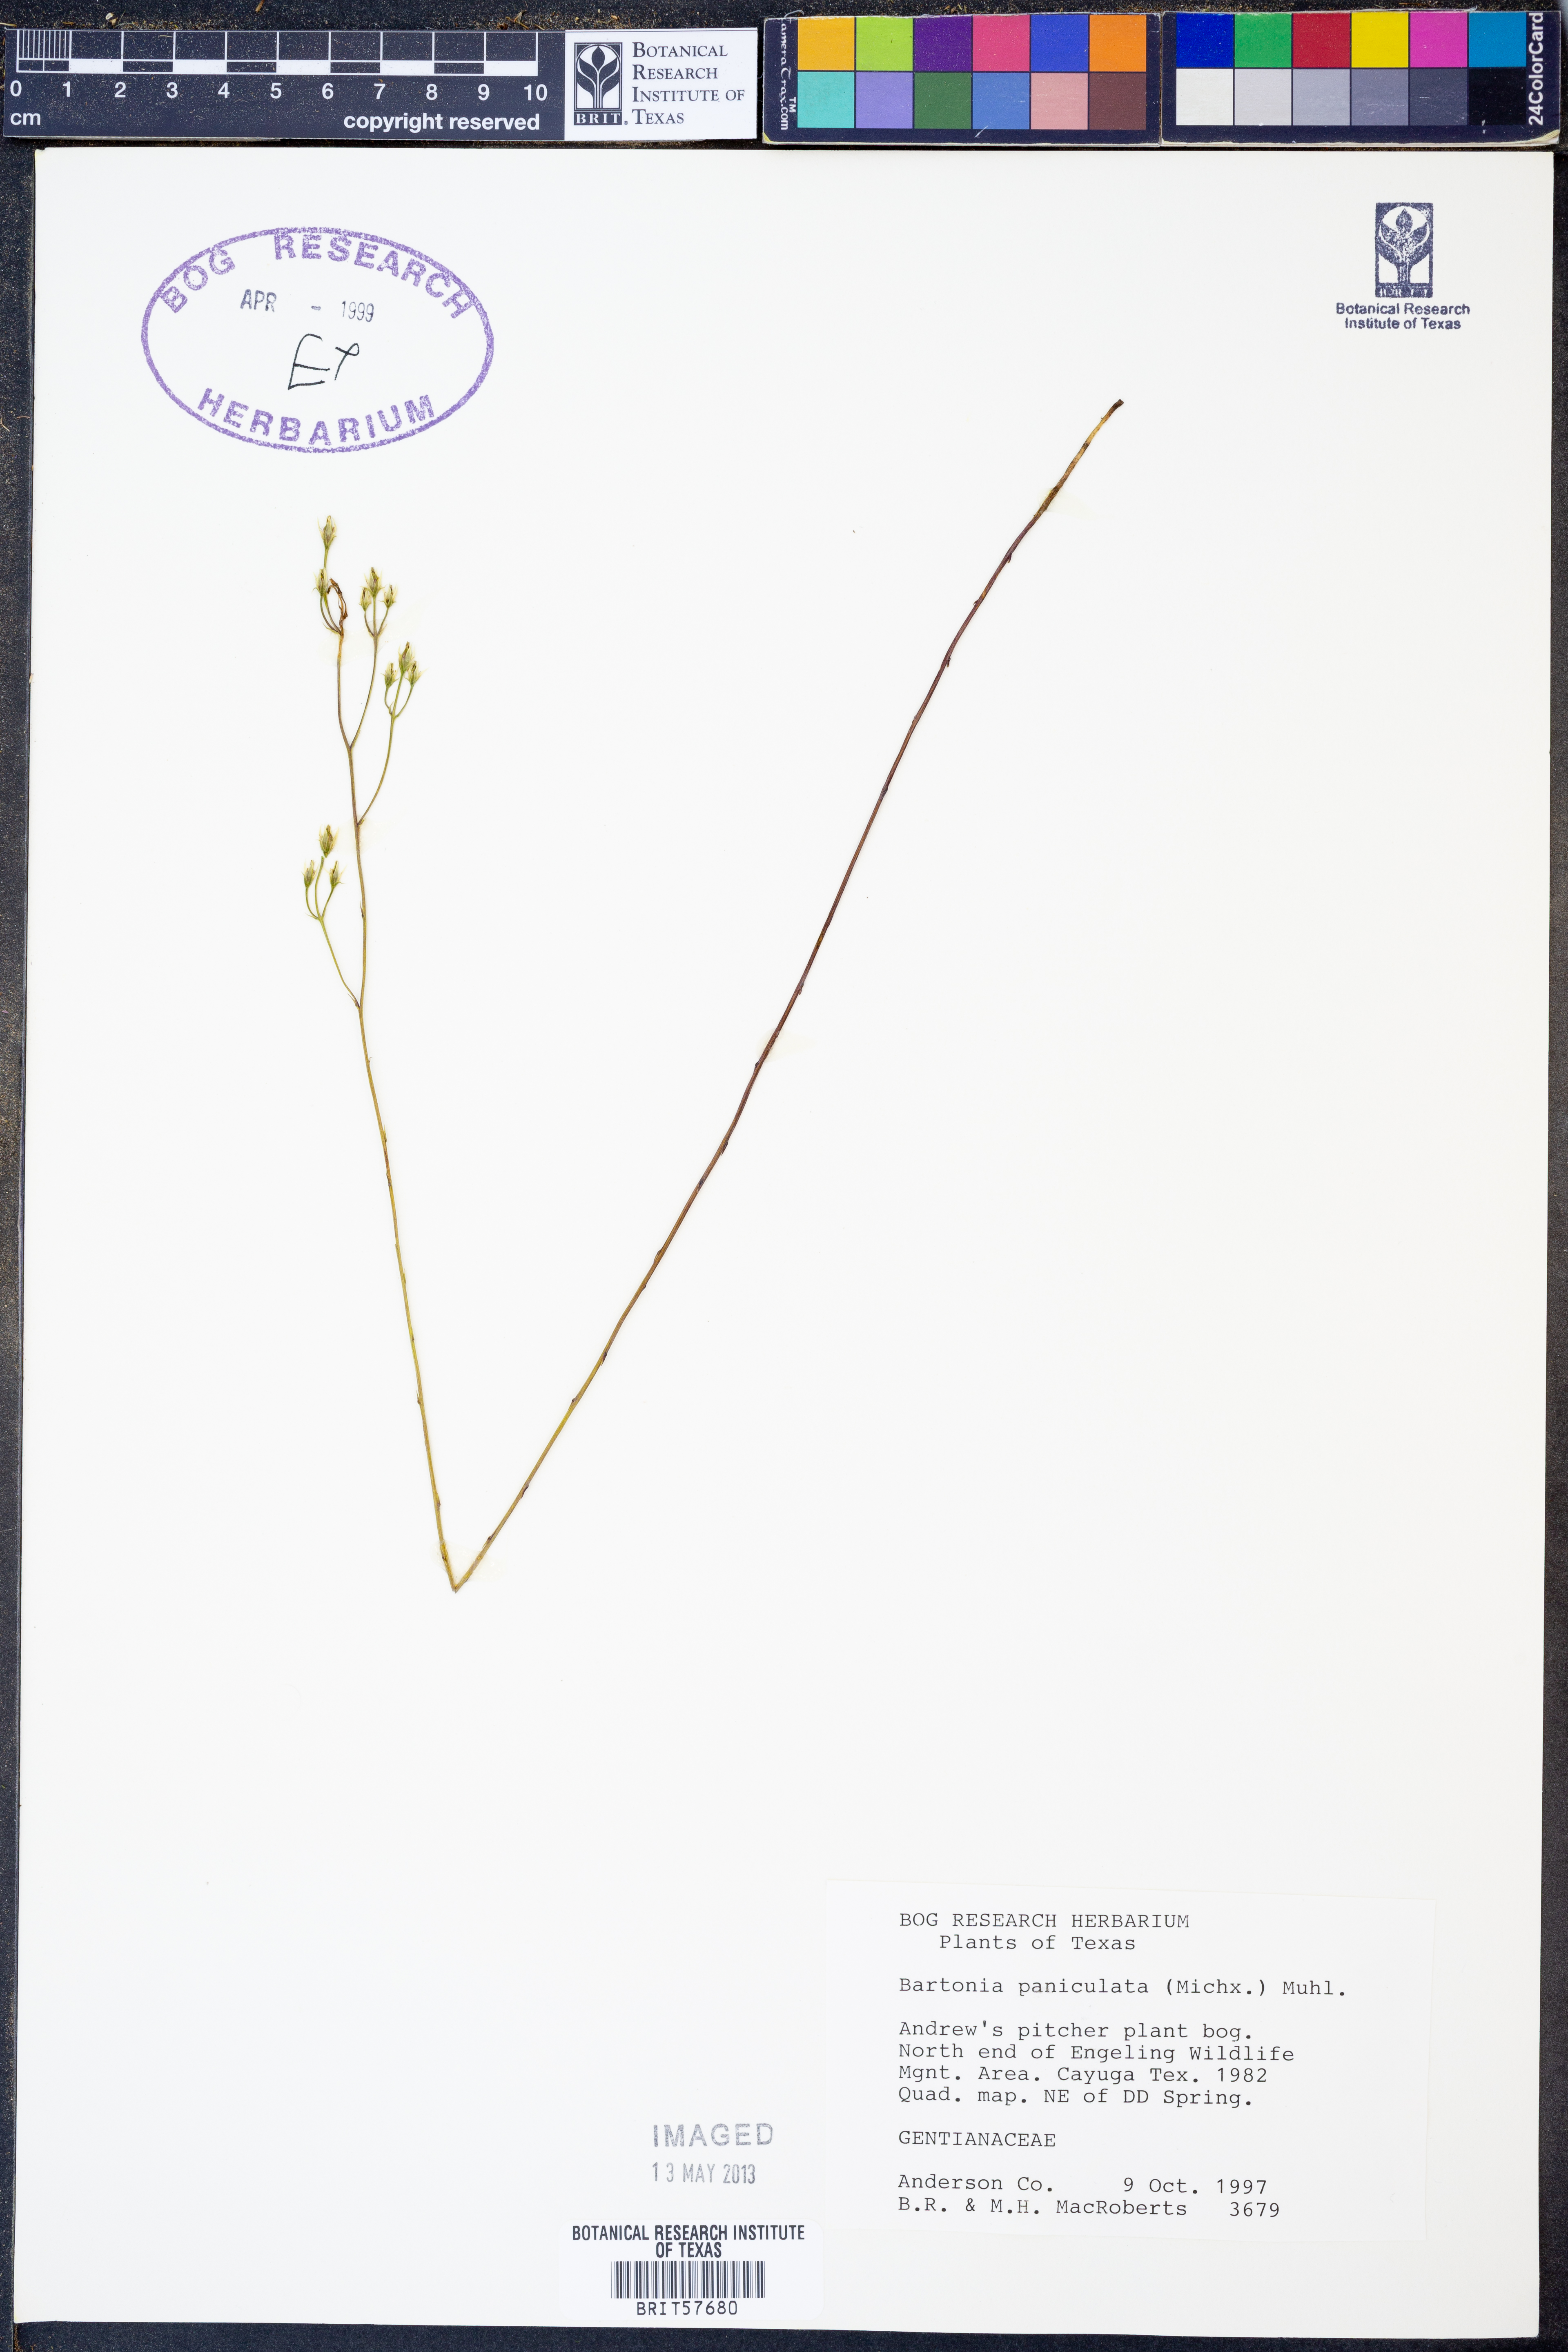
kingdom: Plantae
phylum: Tracheophyta
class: Magnoliopsida
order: Gentianales
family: Gentianaceae
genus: Bartonia
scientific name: Bartonia paniculata
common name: Branched bartonia
